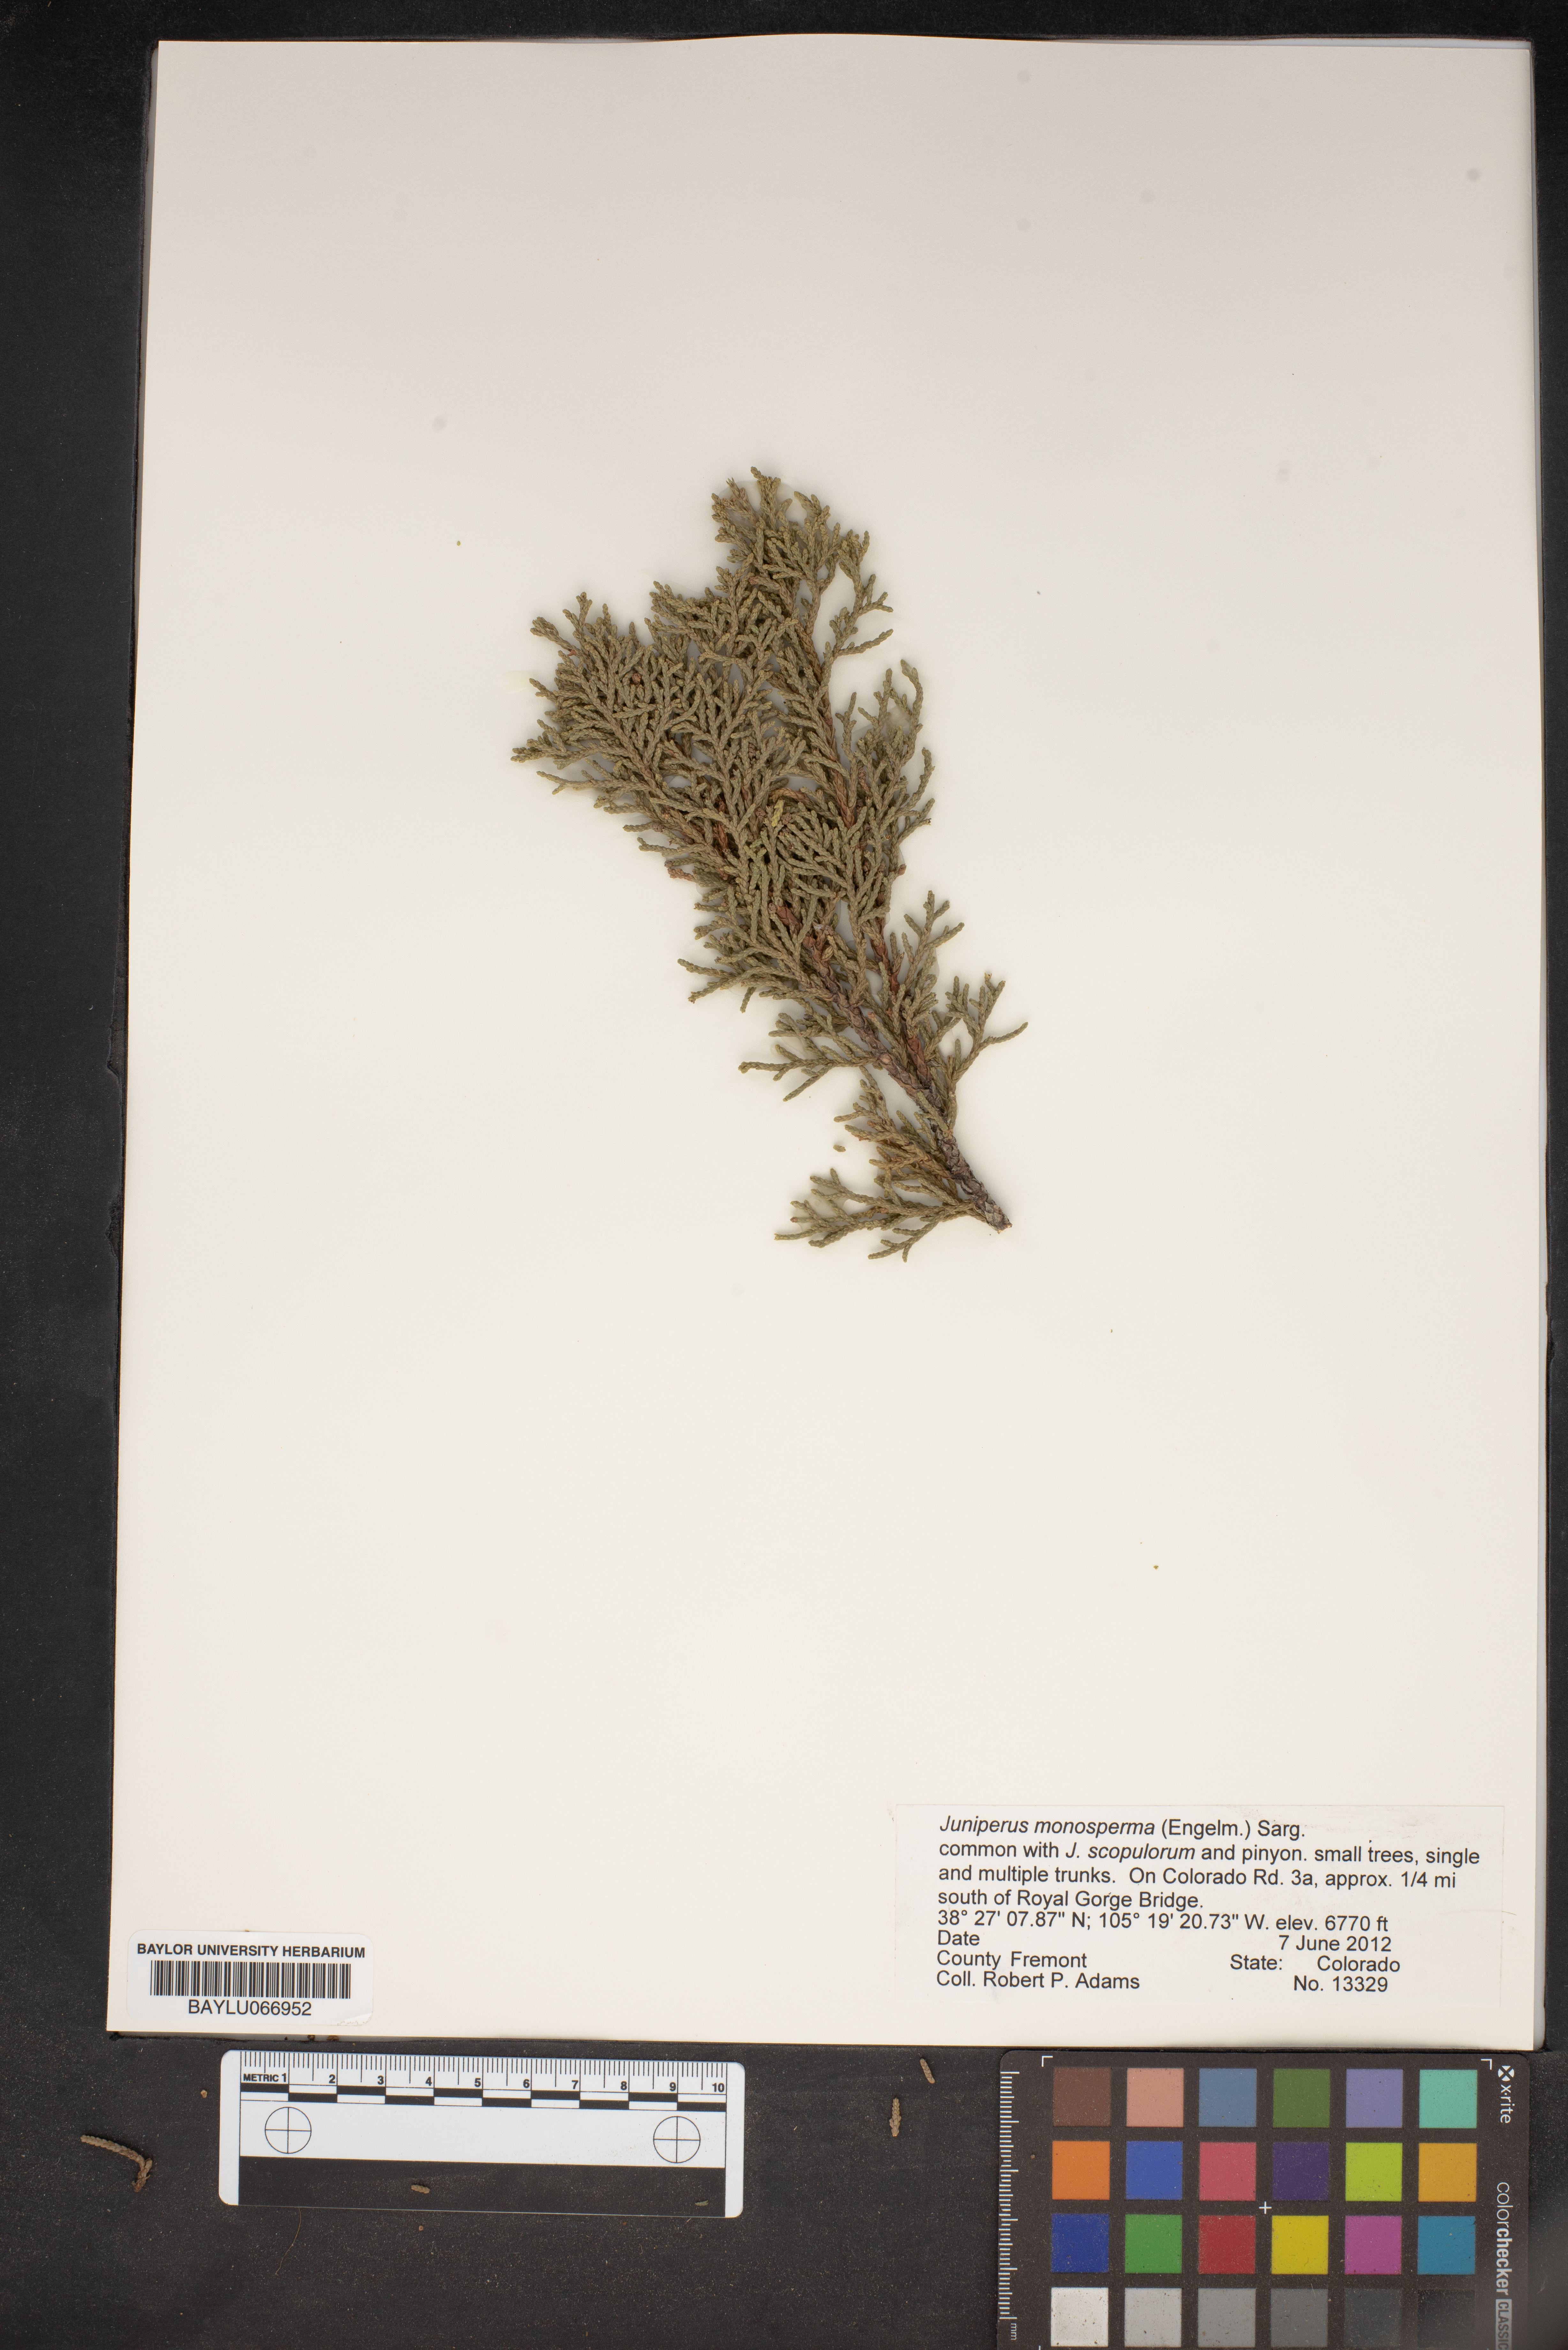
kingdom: Plantae
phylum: Tracheophyta
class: Pinopsida
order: Pinales
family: Cupressaceae
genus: Juniperus
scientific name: Juniperus monosperma
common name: One-seed juniper
